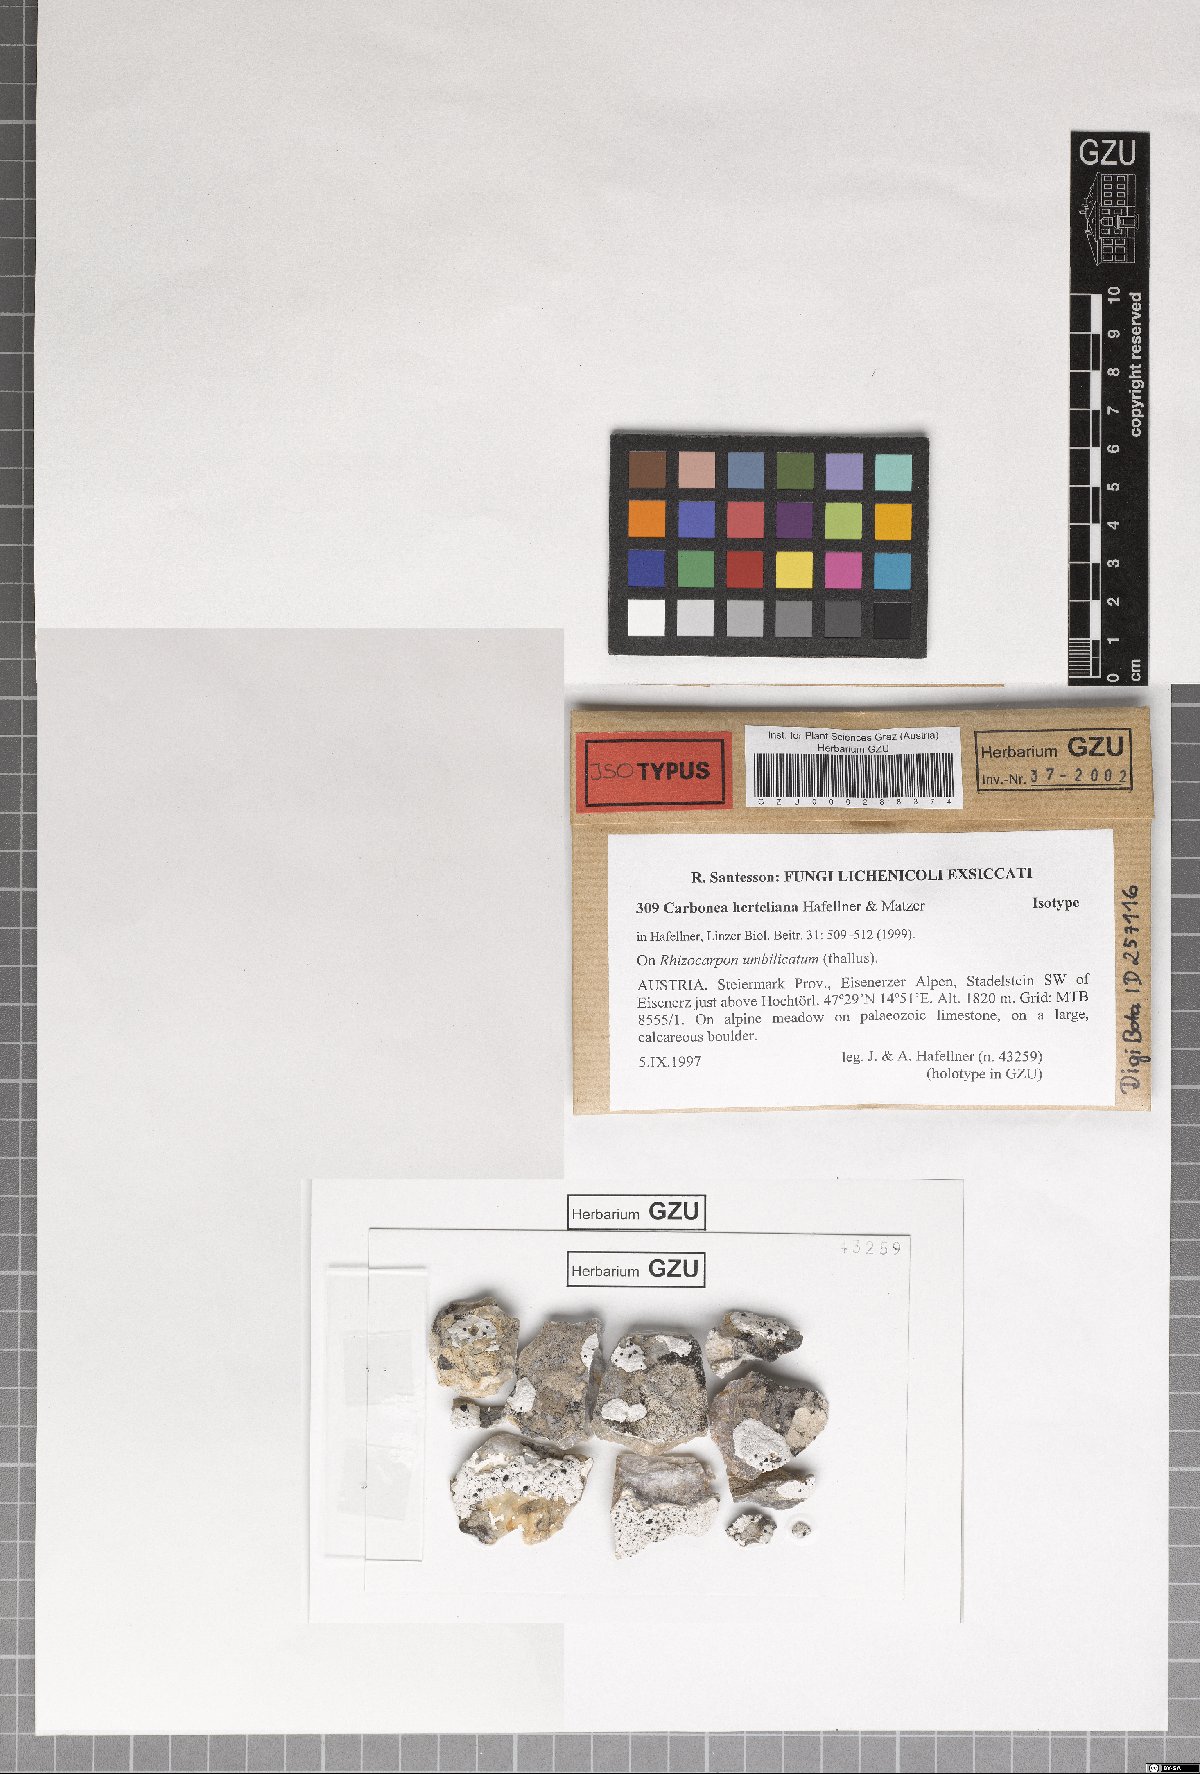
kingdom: Fungi
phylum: Ascomycota
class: Lecanoromycetes
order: Teloschistales
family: Teloschistaceae
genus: Huea
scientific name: Huea Carbonea herteliana
